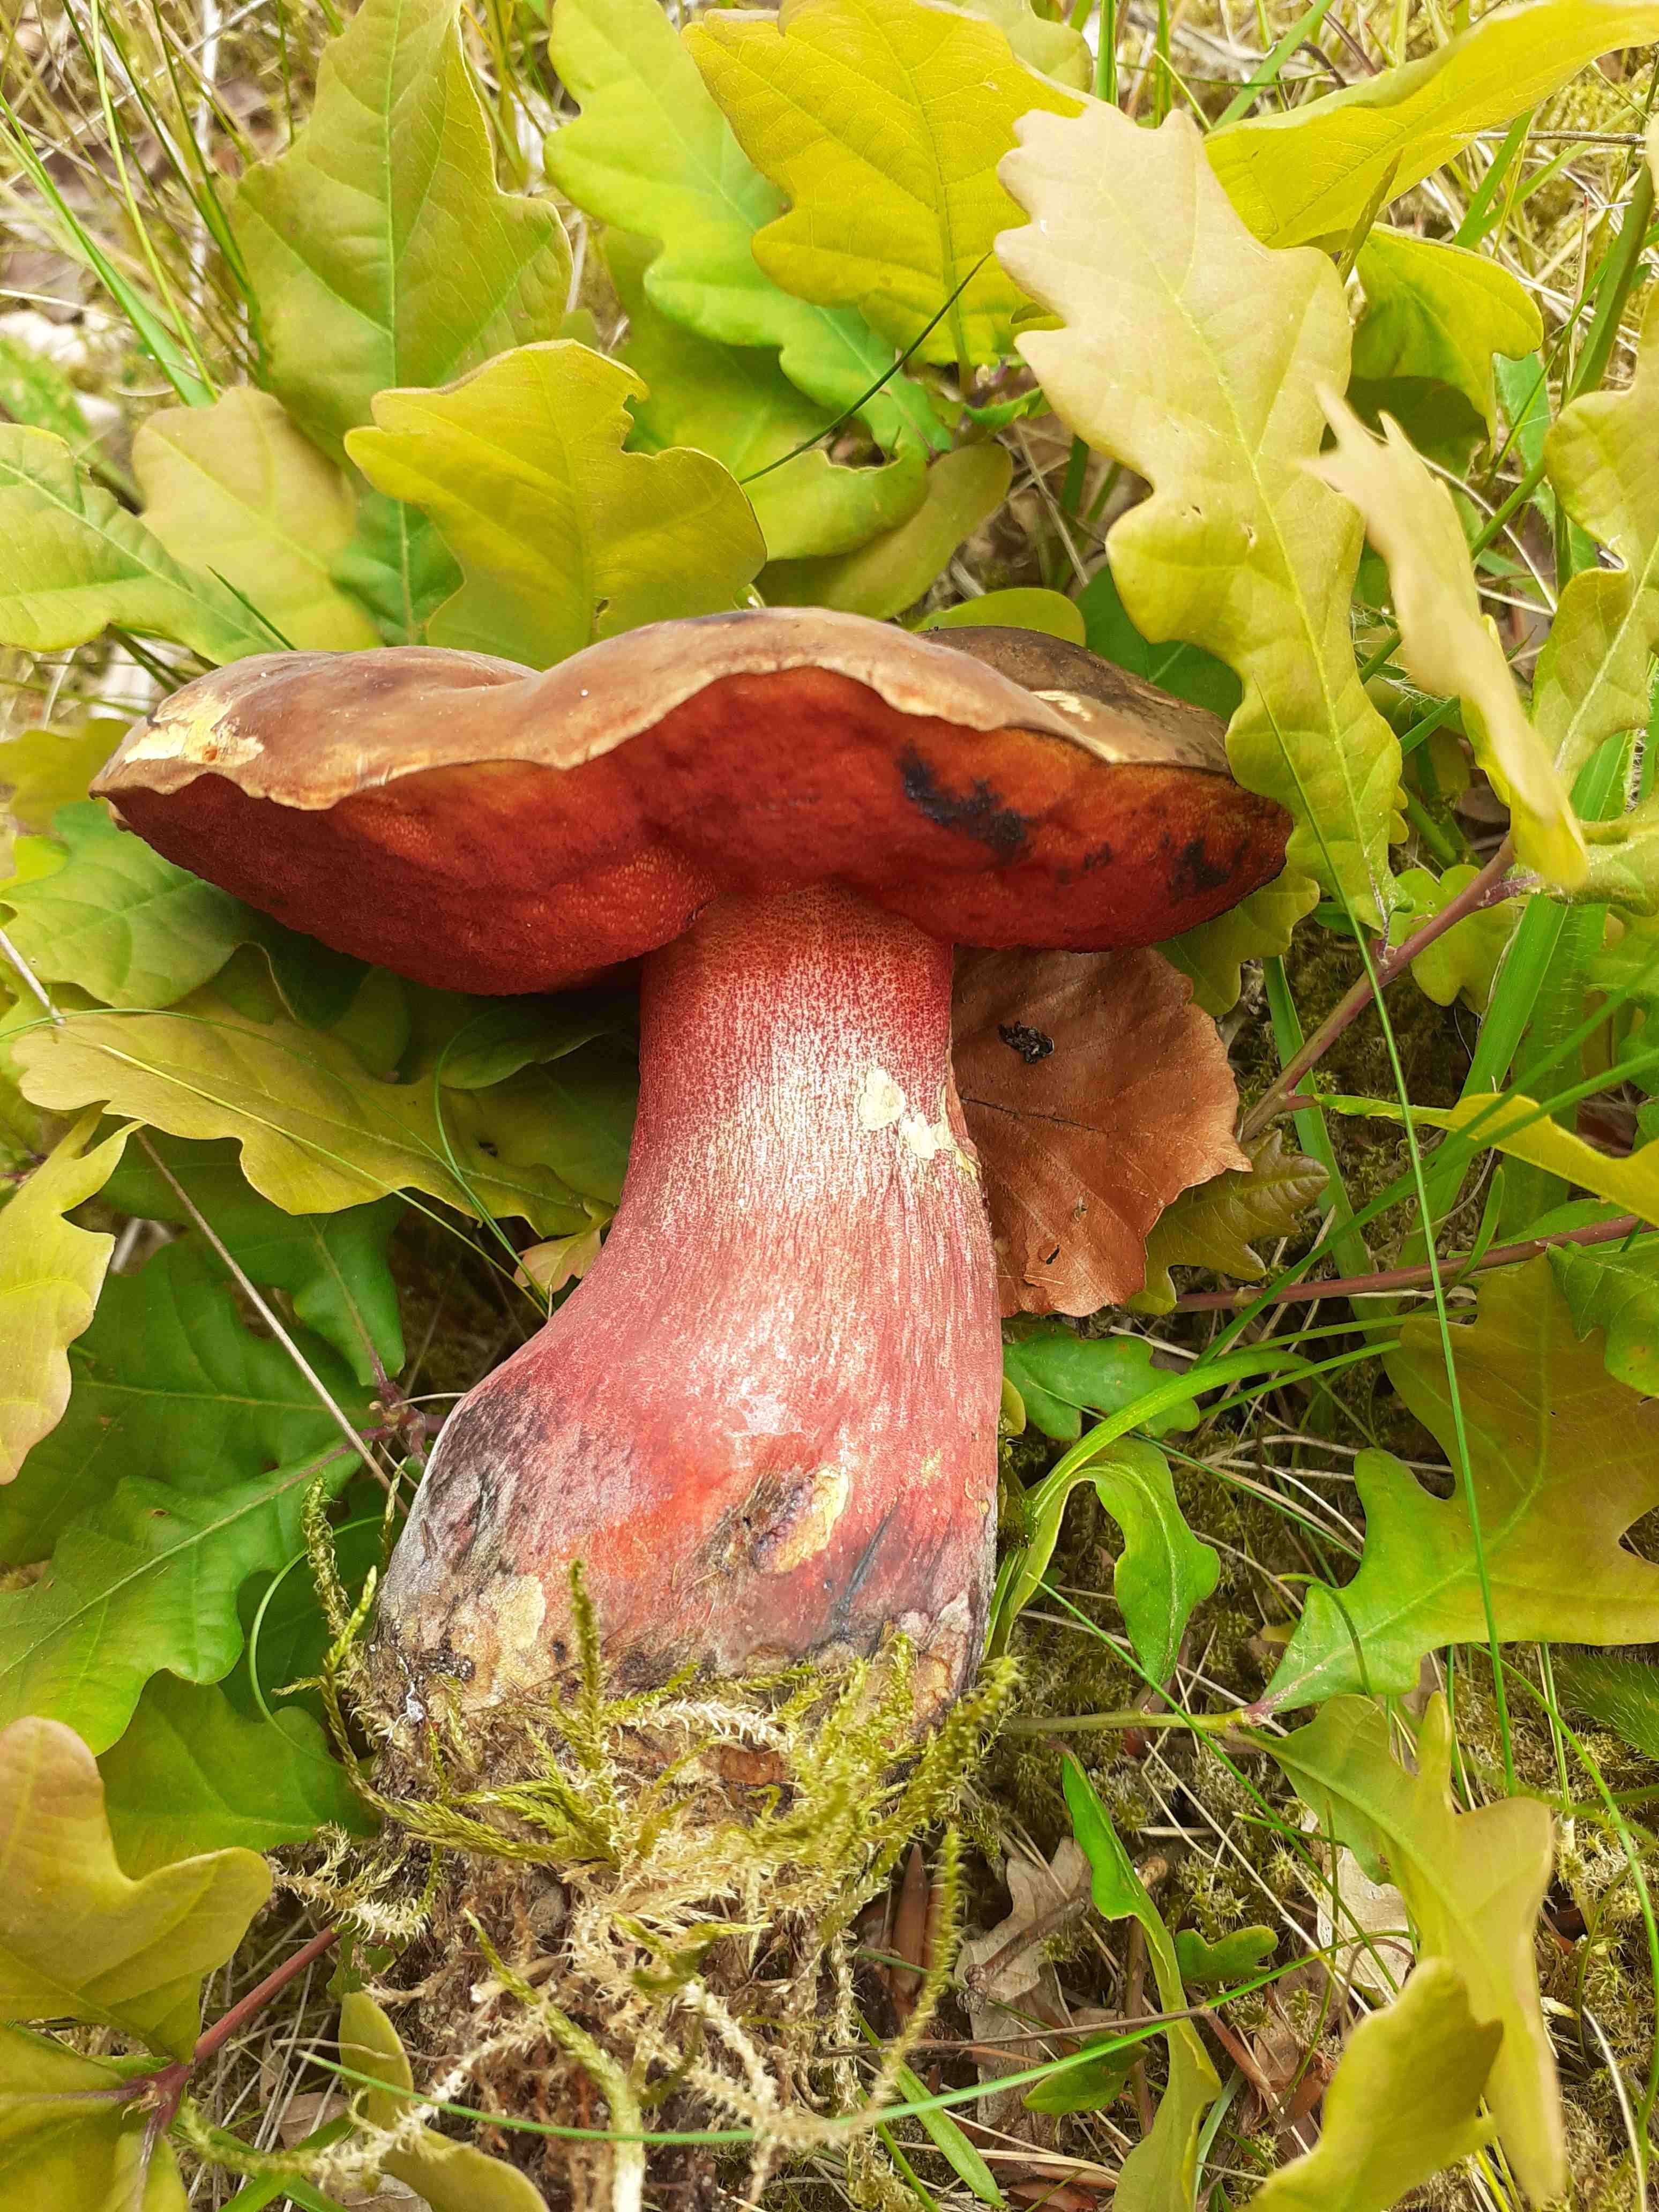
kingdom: Fungi
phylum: Basidiomycota
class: Agaricomycetes
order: Boletales
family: Boletaceae
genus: Neoboletus
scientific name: Neoboletus erythropus
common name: punktstokket indigorørhat
